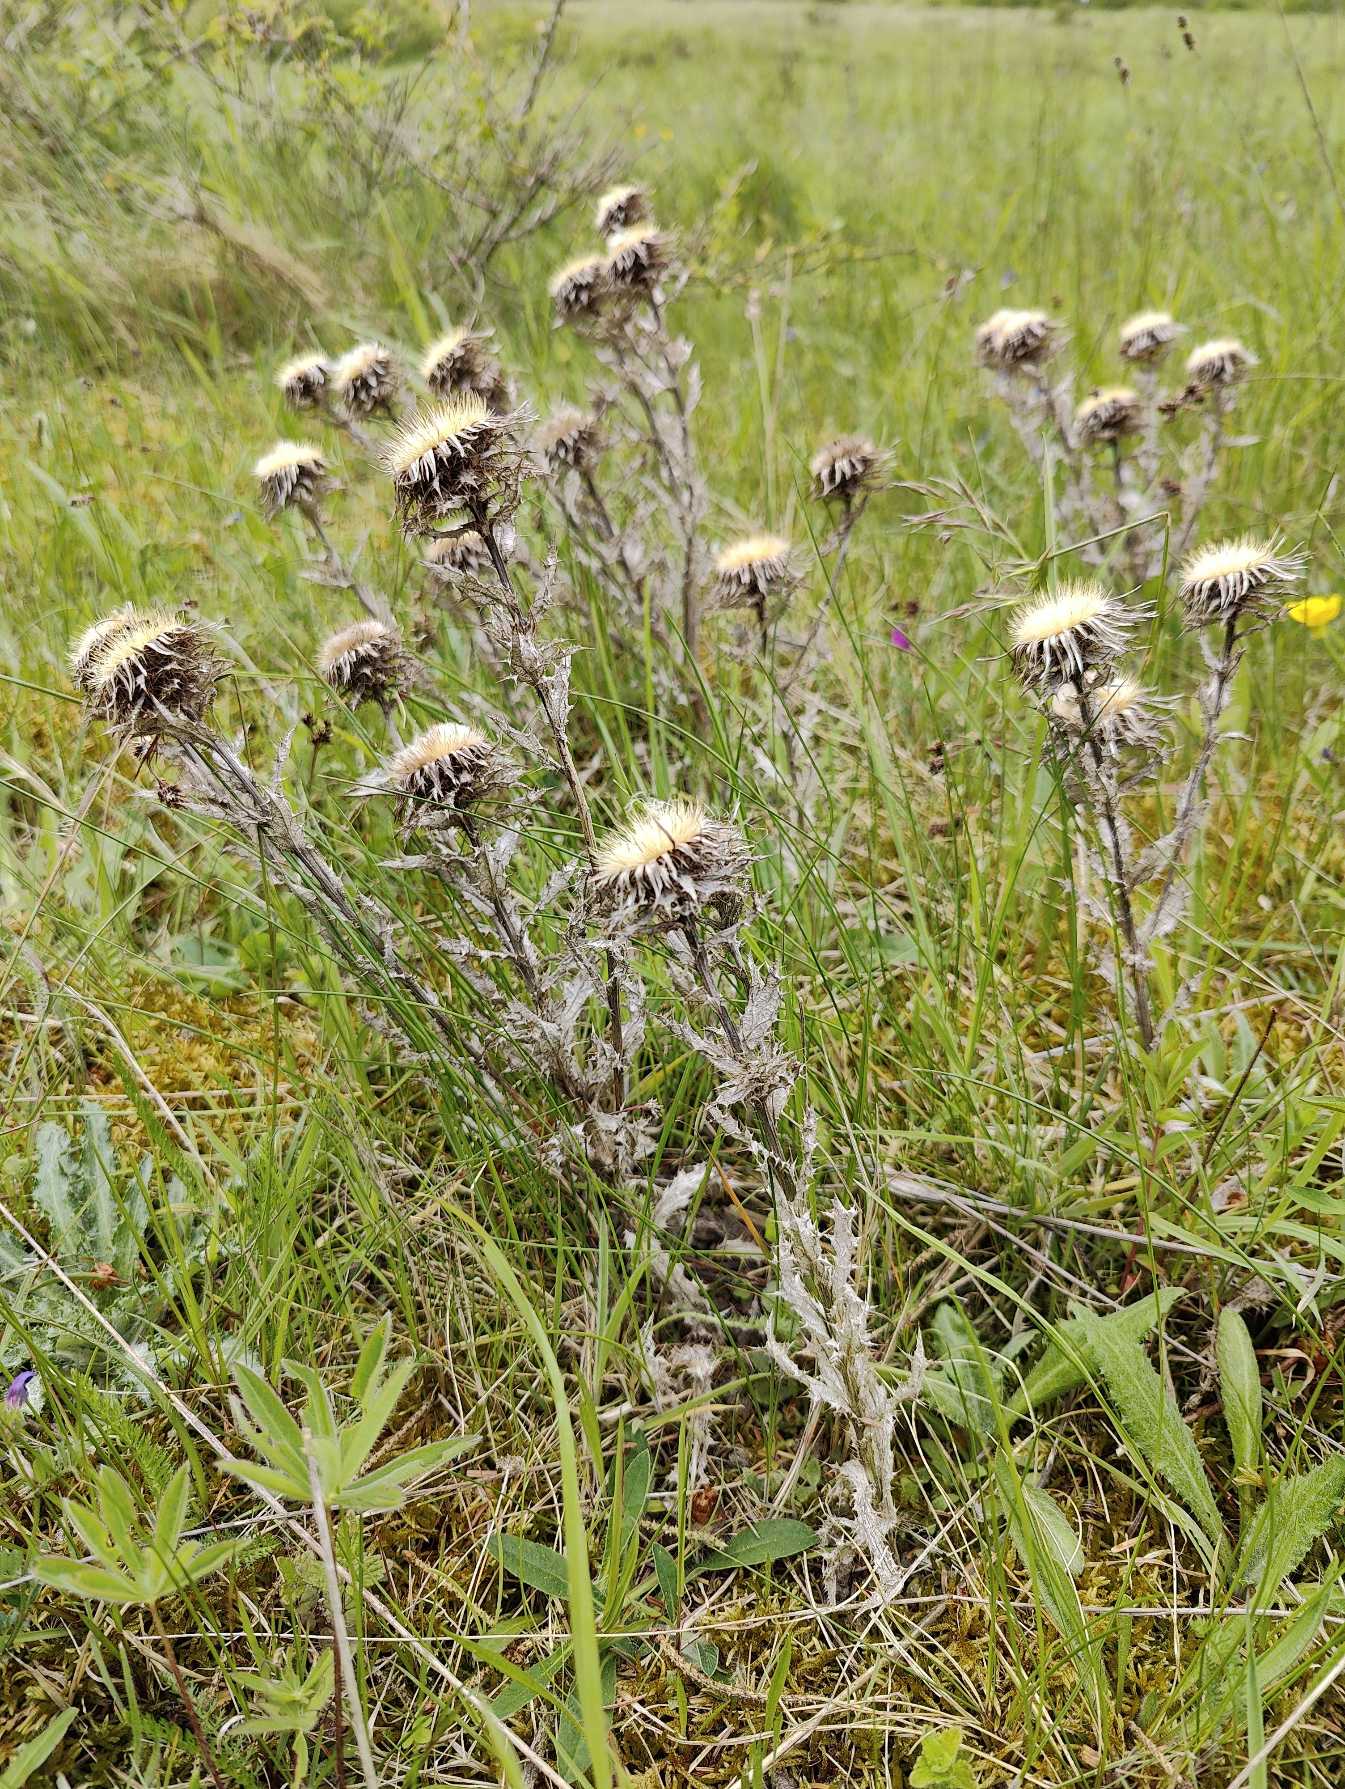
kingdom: Plantae
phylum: Tracheophyta
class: Magnoliopsida
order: Asterales
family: Asteraceae
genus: Carlina
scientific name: Carlina vulgaris
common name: Bakketidsel
